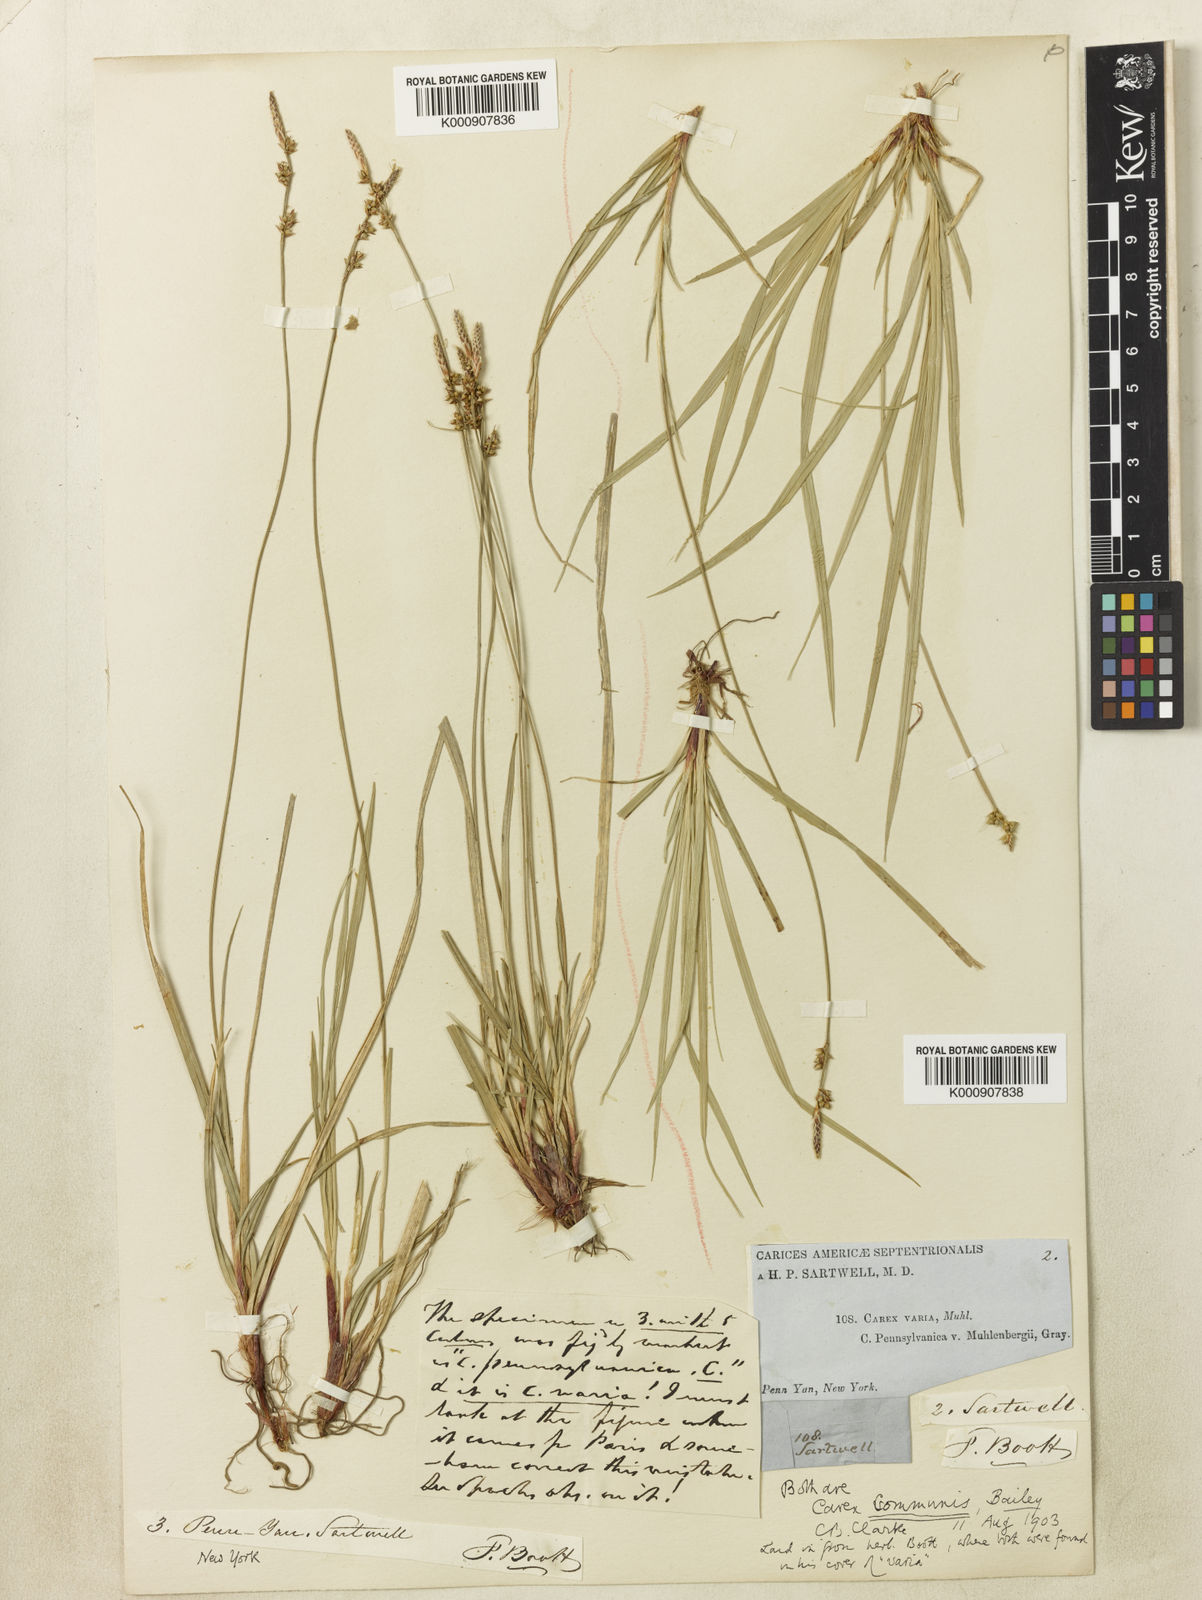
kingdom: Plantae
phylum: Tracheophyta
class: Liliopsida
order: Poales
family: Cyperaceae
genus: Carex
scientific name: Carex communis
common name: Colonial oak sedge
